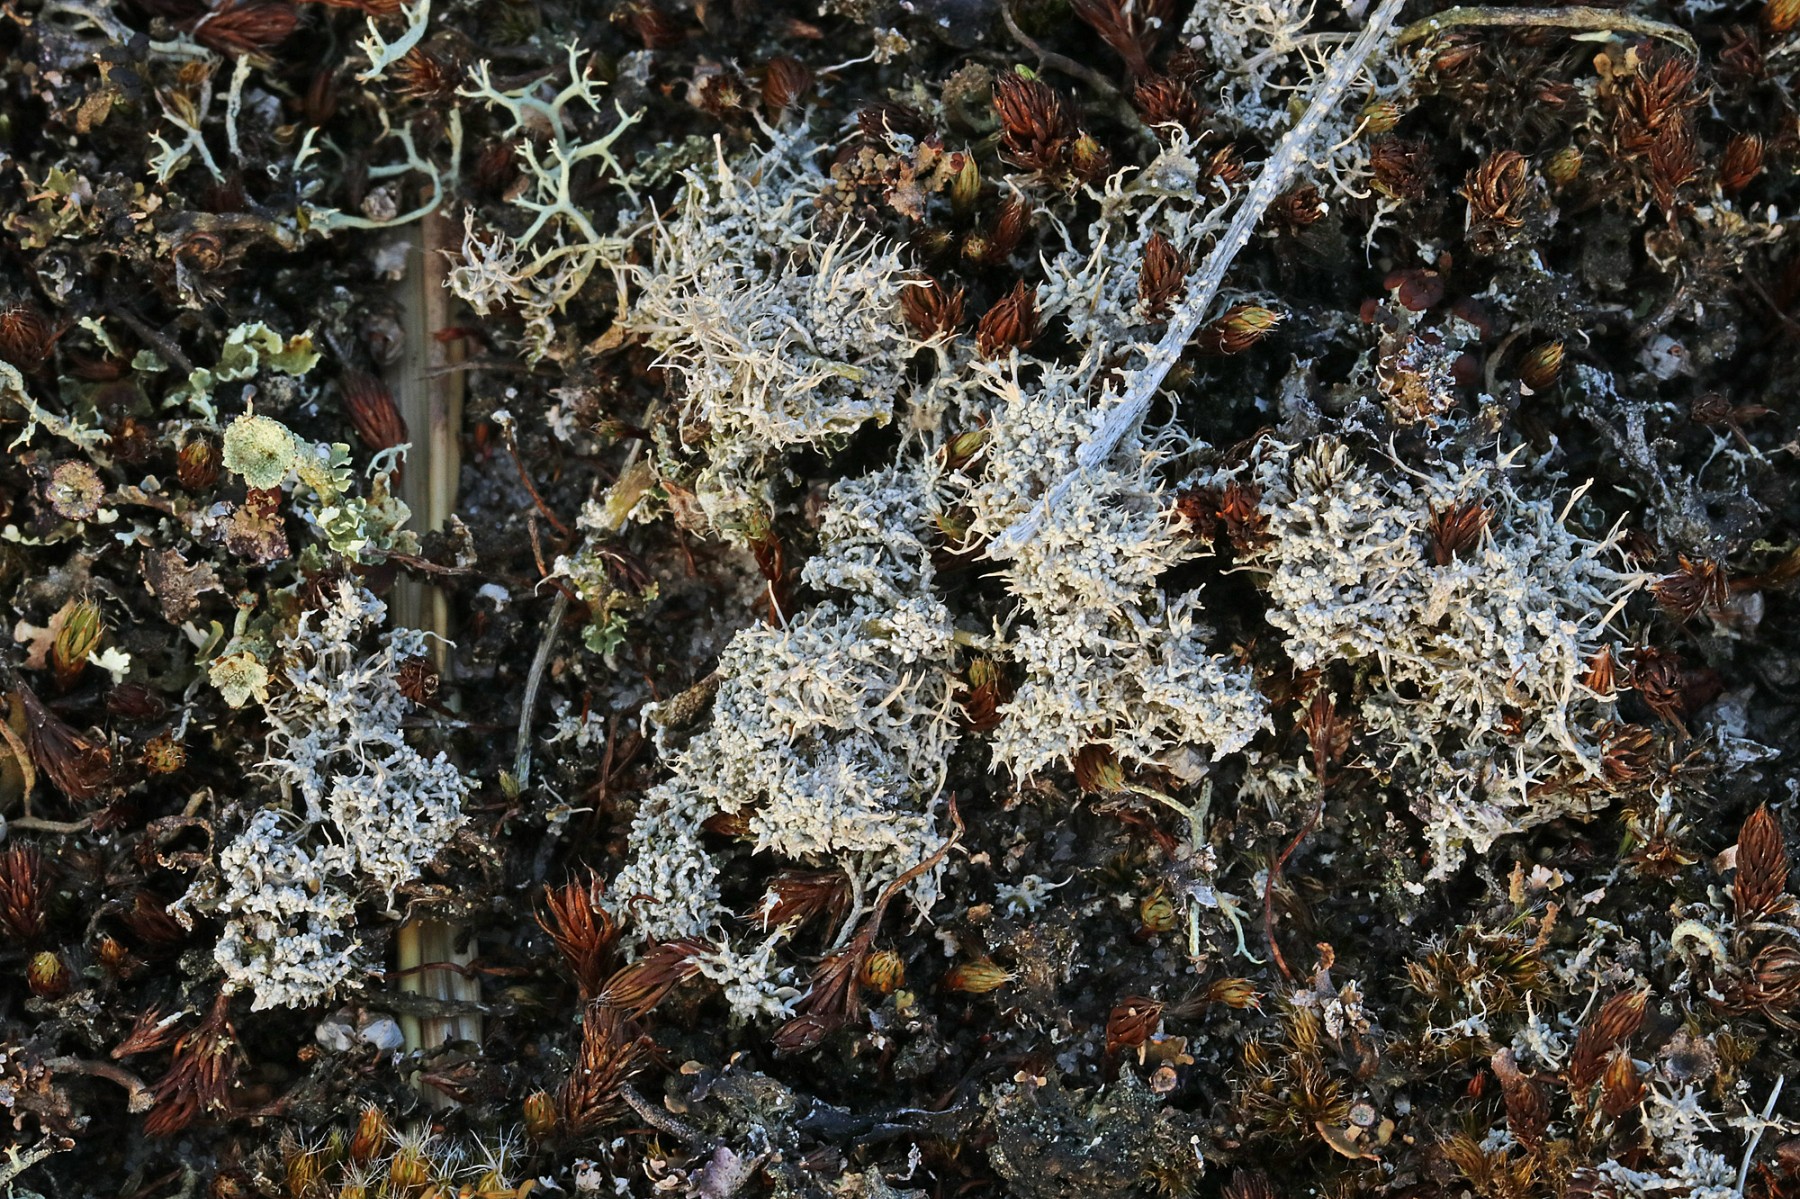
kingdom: Fungi
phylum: Ascomycota
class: Lecanoromycetes
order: Pertusariales
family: Ochrolechiaceae
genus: Ochrolechia
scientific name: Ochrolechia frigida
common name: fjeld-blegskivelav
